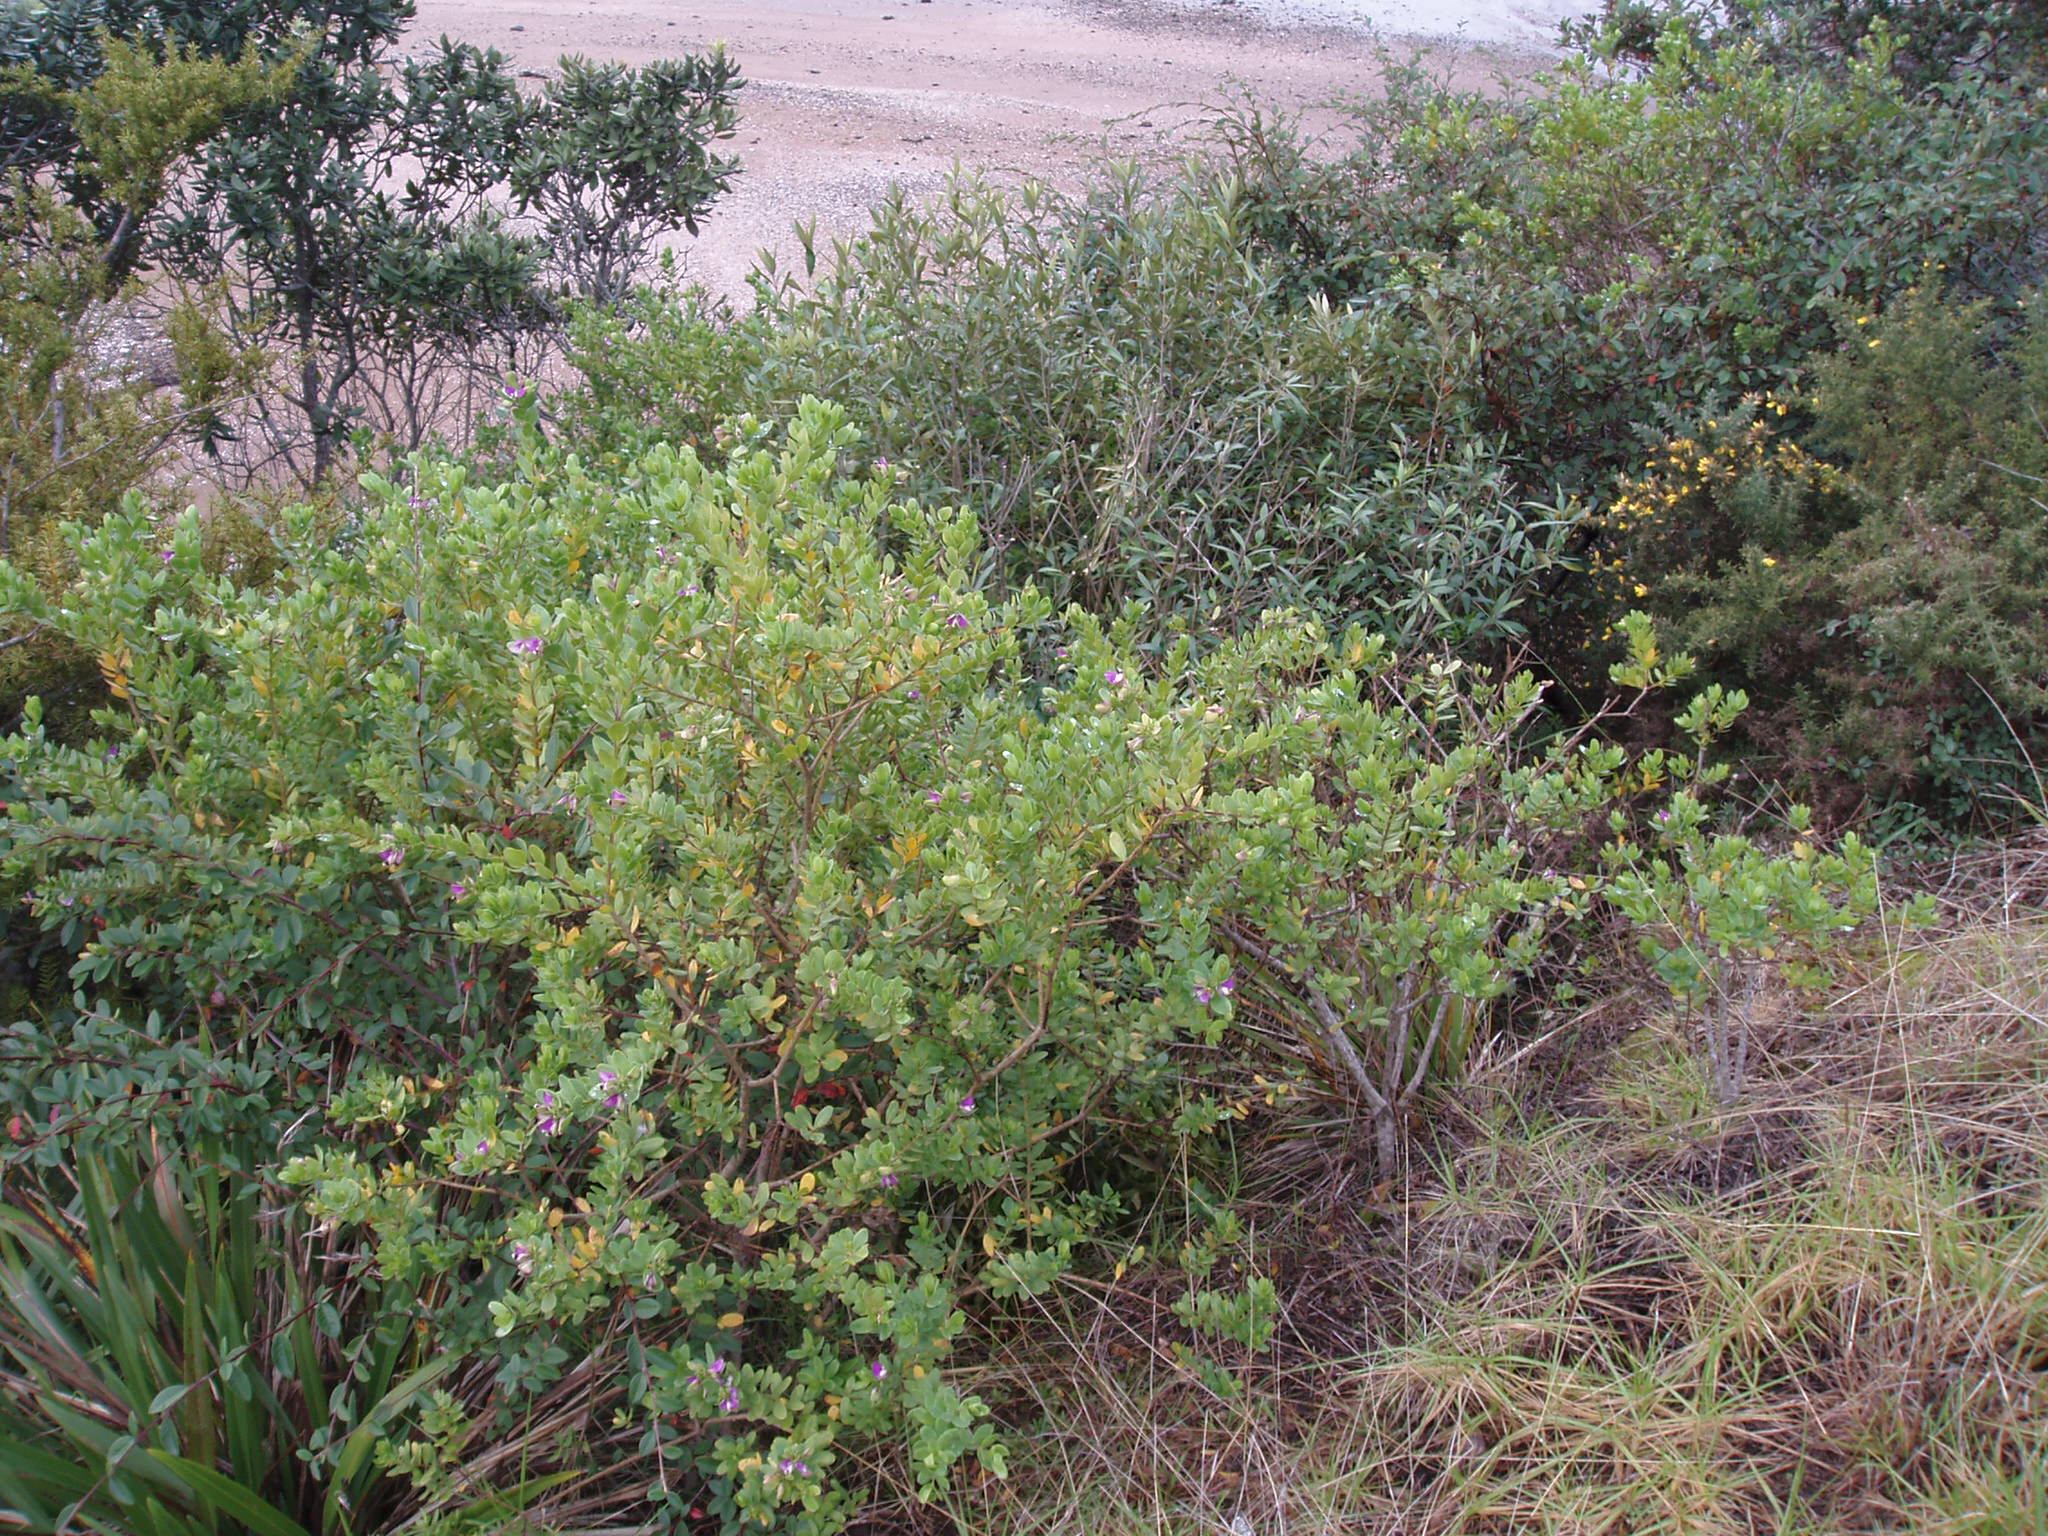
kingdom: Plantae
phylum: Tracheophyta
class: Magnoliopsida
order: Fabales
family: Polygalaceae
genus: Polygala
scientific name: Polygala myrtifolia
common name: Myrtle-leaf milkwort
